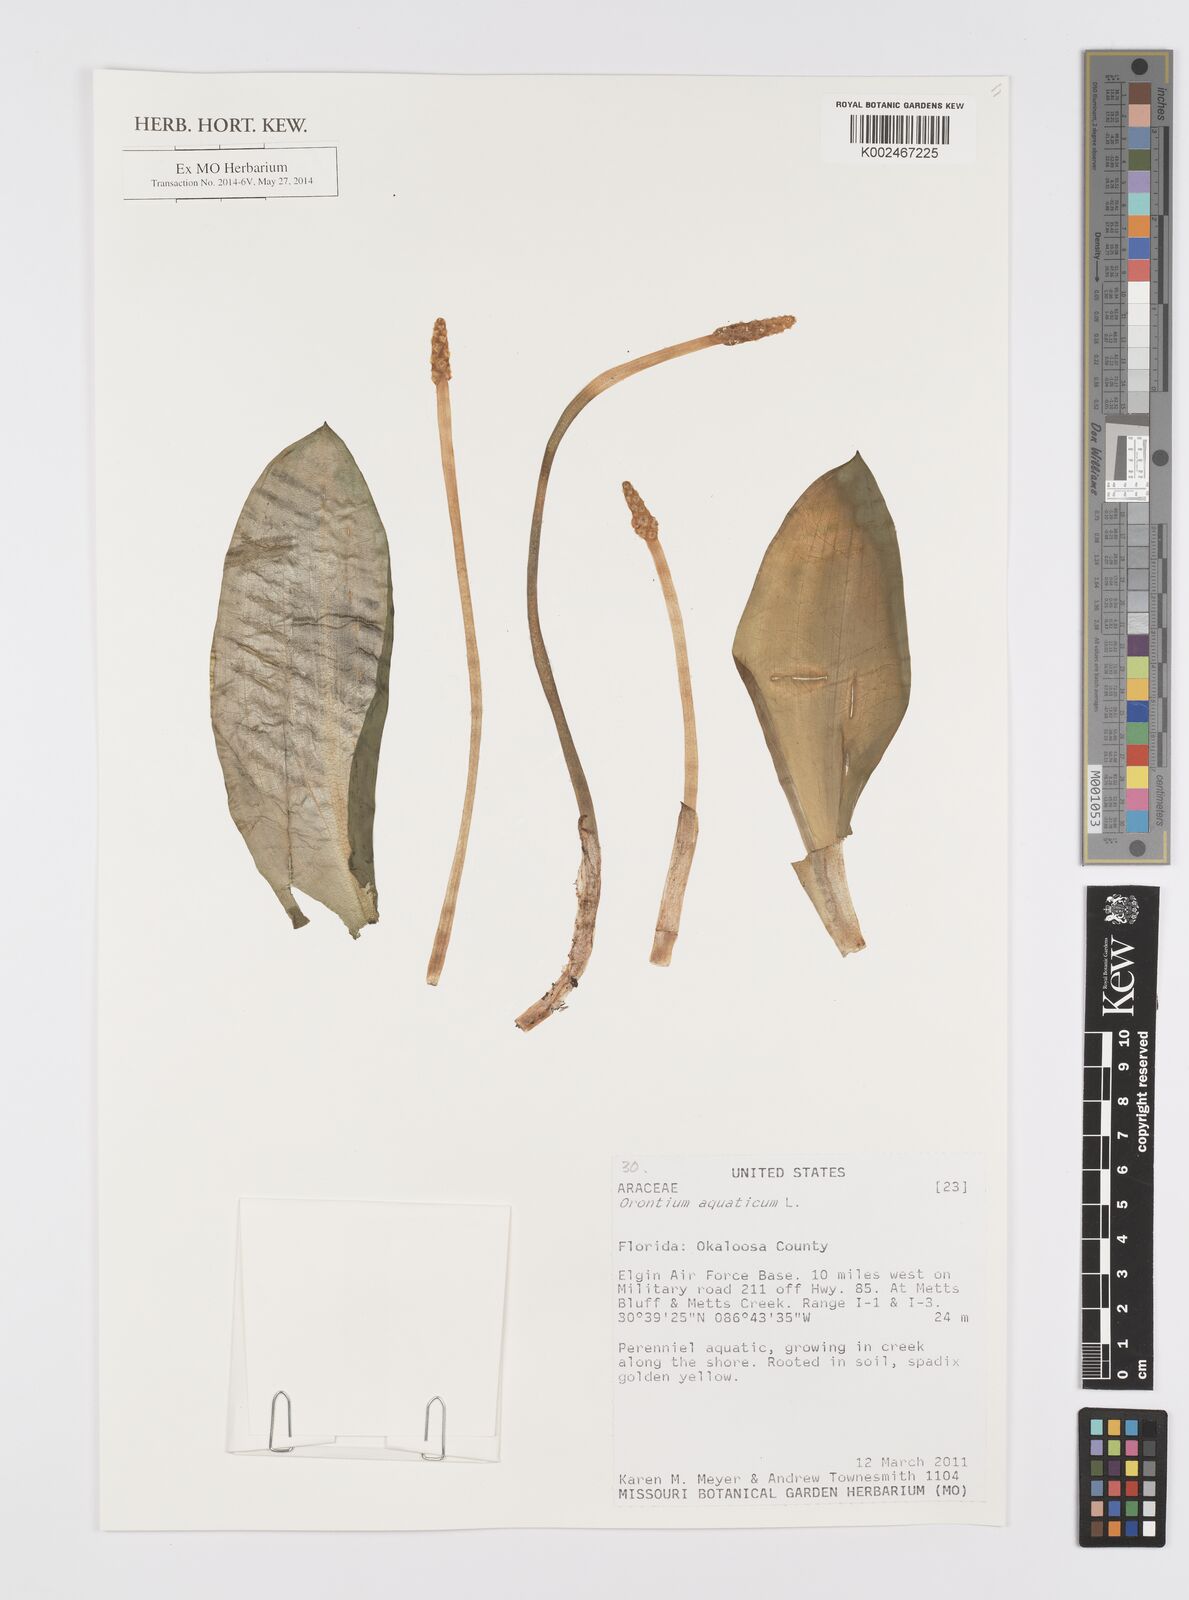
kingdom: Plantae
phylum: Tracheophyta
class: Liliopsida
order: Alismatales
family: Araceae
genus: Orontium
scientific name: Orontium aquaticum
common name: Golden-club
